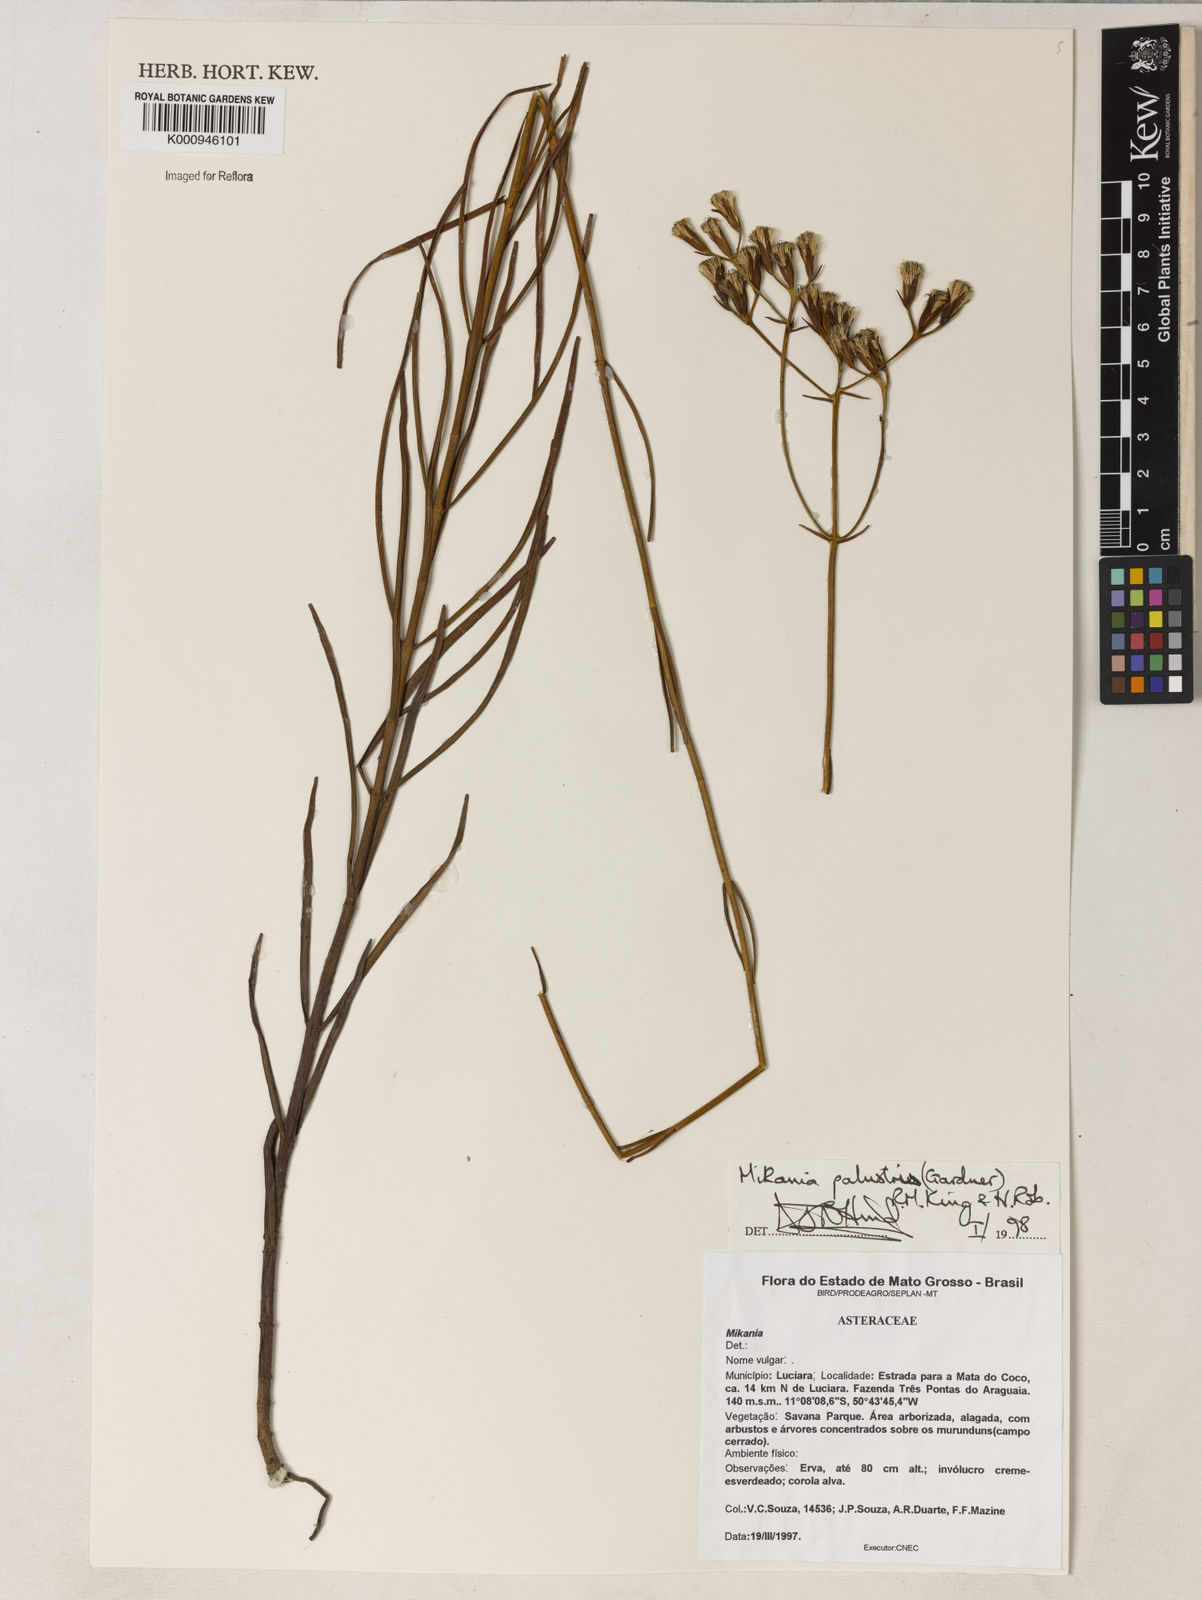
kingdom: Plantae
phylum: Tracheophyta
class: Magnoliopsida
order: Asterales
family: Asteraceae
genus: Mikania
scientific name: Mikania palustris
